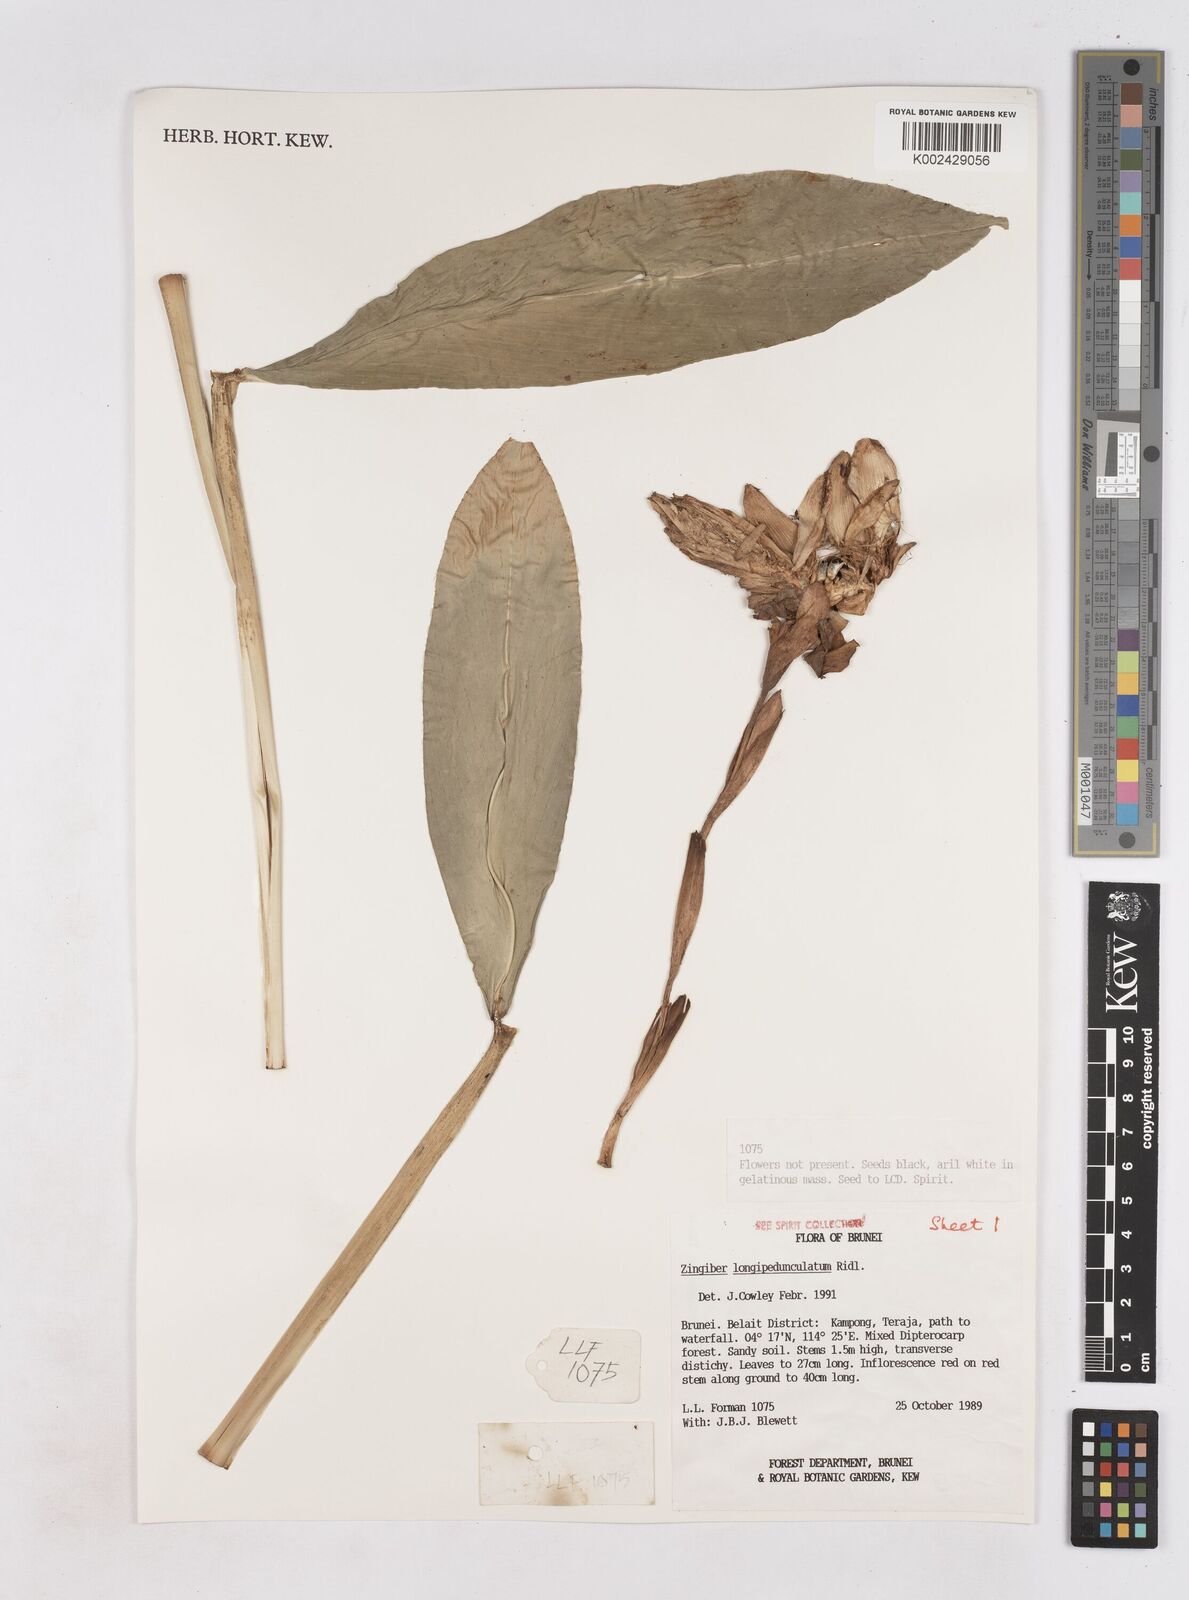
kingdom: Plantae
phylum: Tracheophyta
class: Liliopsida
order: Zingiberales
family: Zingiberaceae
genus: Zingiber
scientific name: Zingiber longipedunculatum
